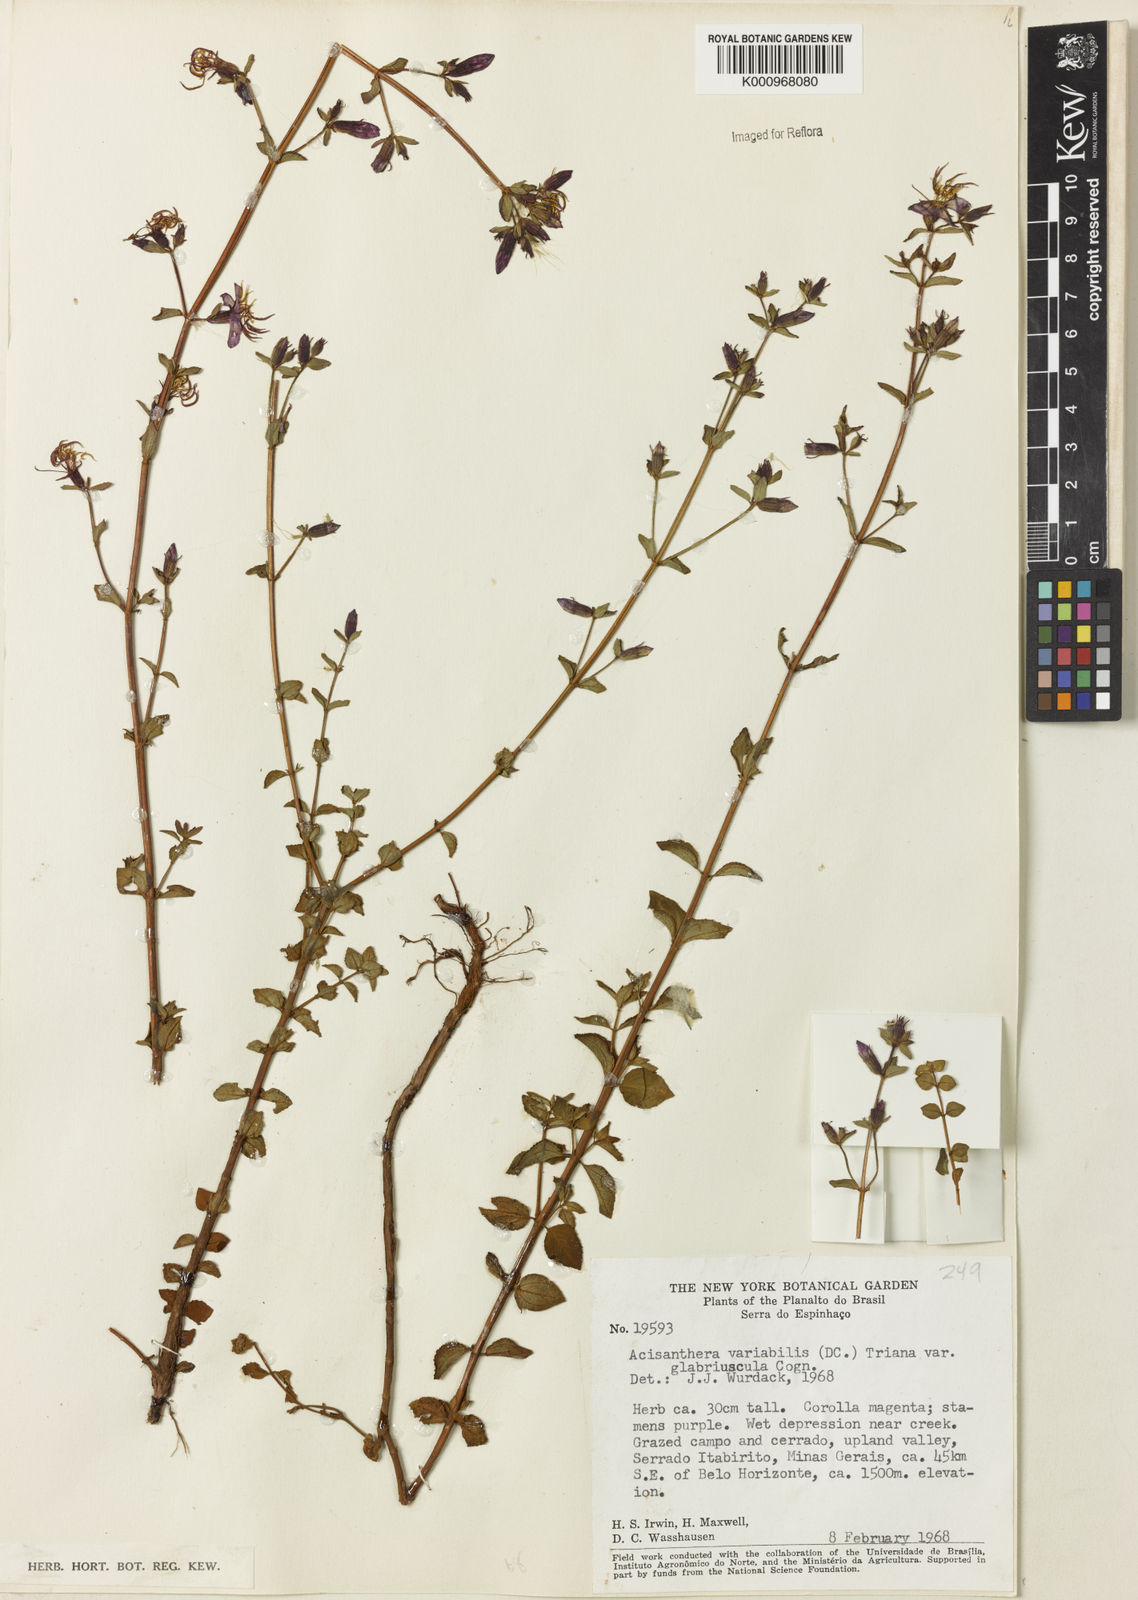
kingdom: Plantae
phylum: Tracheophyta
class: Magnoliopsida
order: Myrtales
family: Melastomataceae
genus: Acisanthera
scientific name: Acisanthera variabilis
